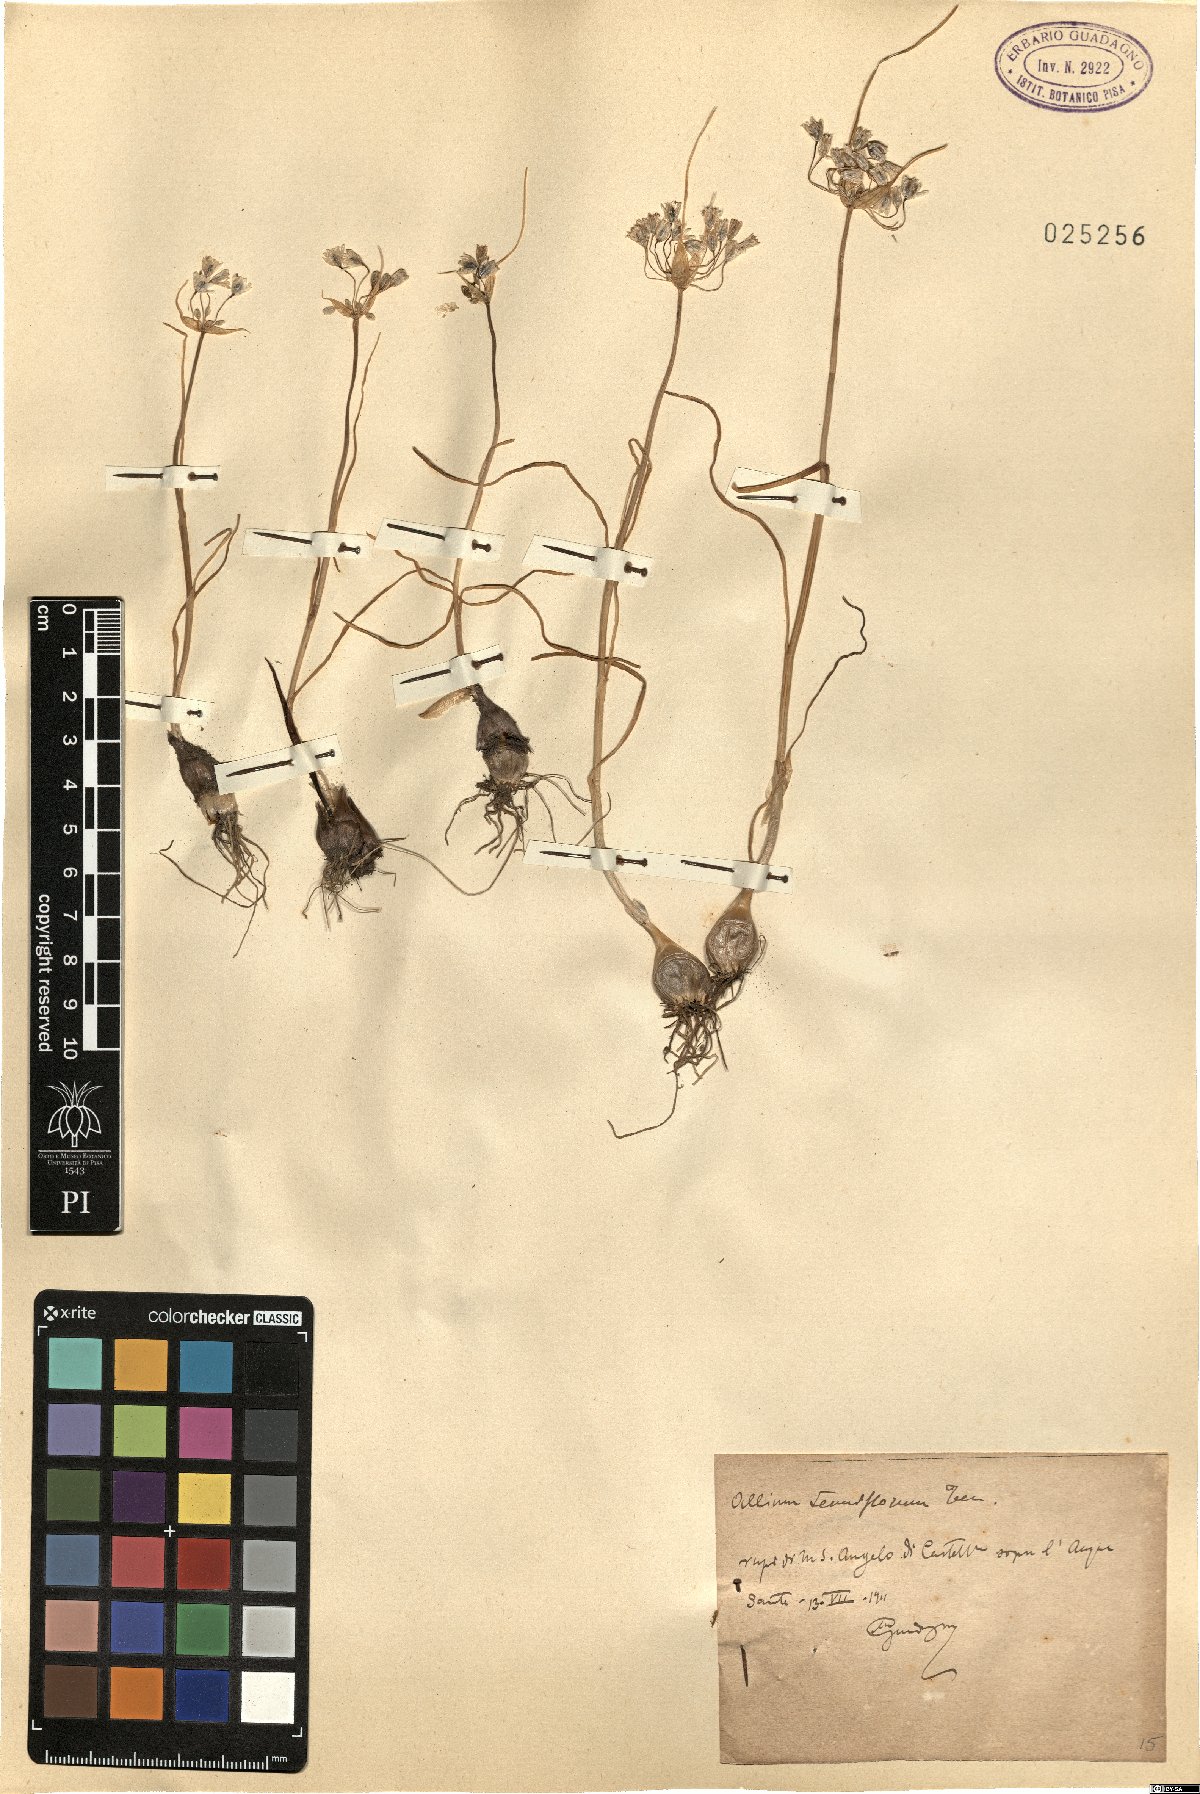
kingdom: Plantae
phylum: Tracheophyta
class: Liliopsida
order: Asparagales
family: Amaryllidaceae
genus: Allium
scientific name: Allium tenuiflorum
